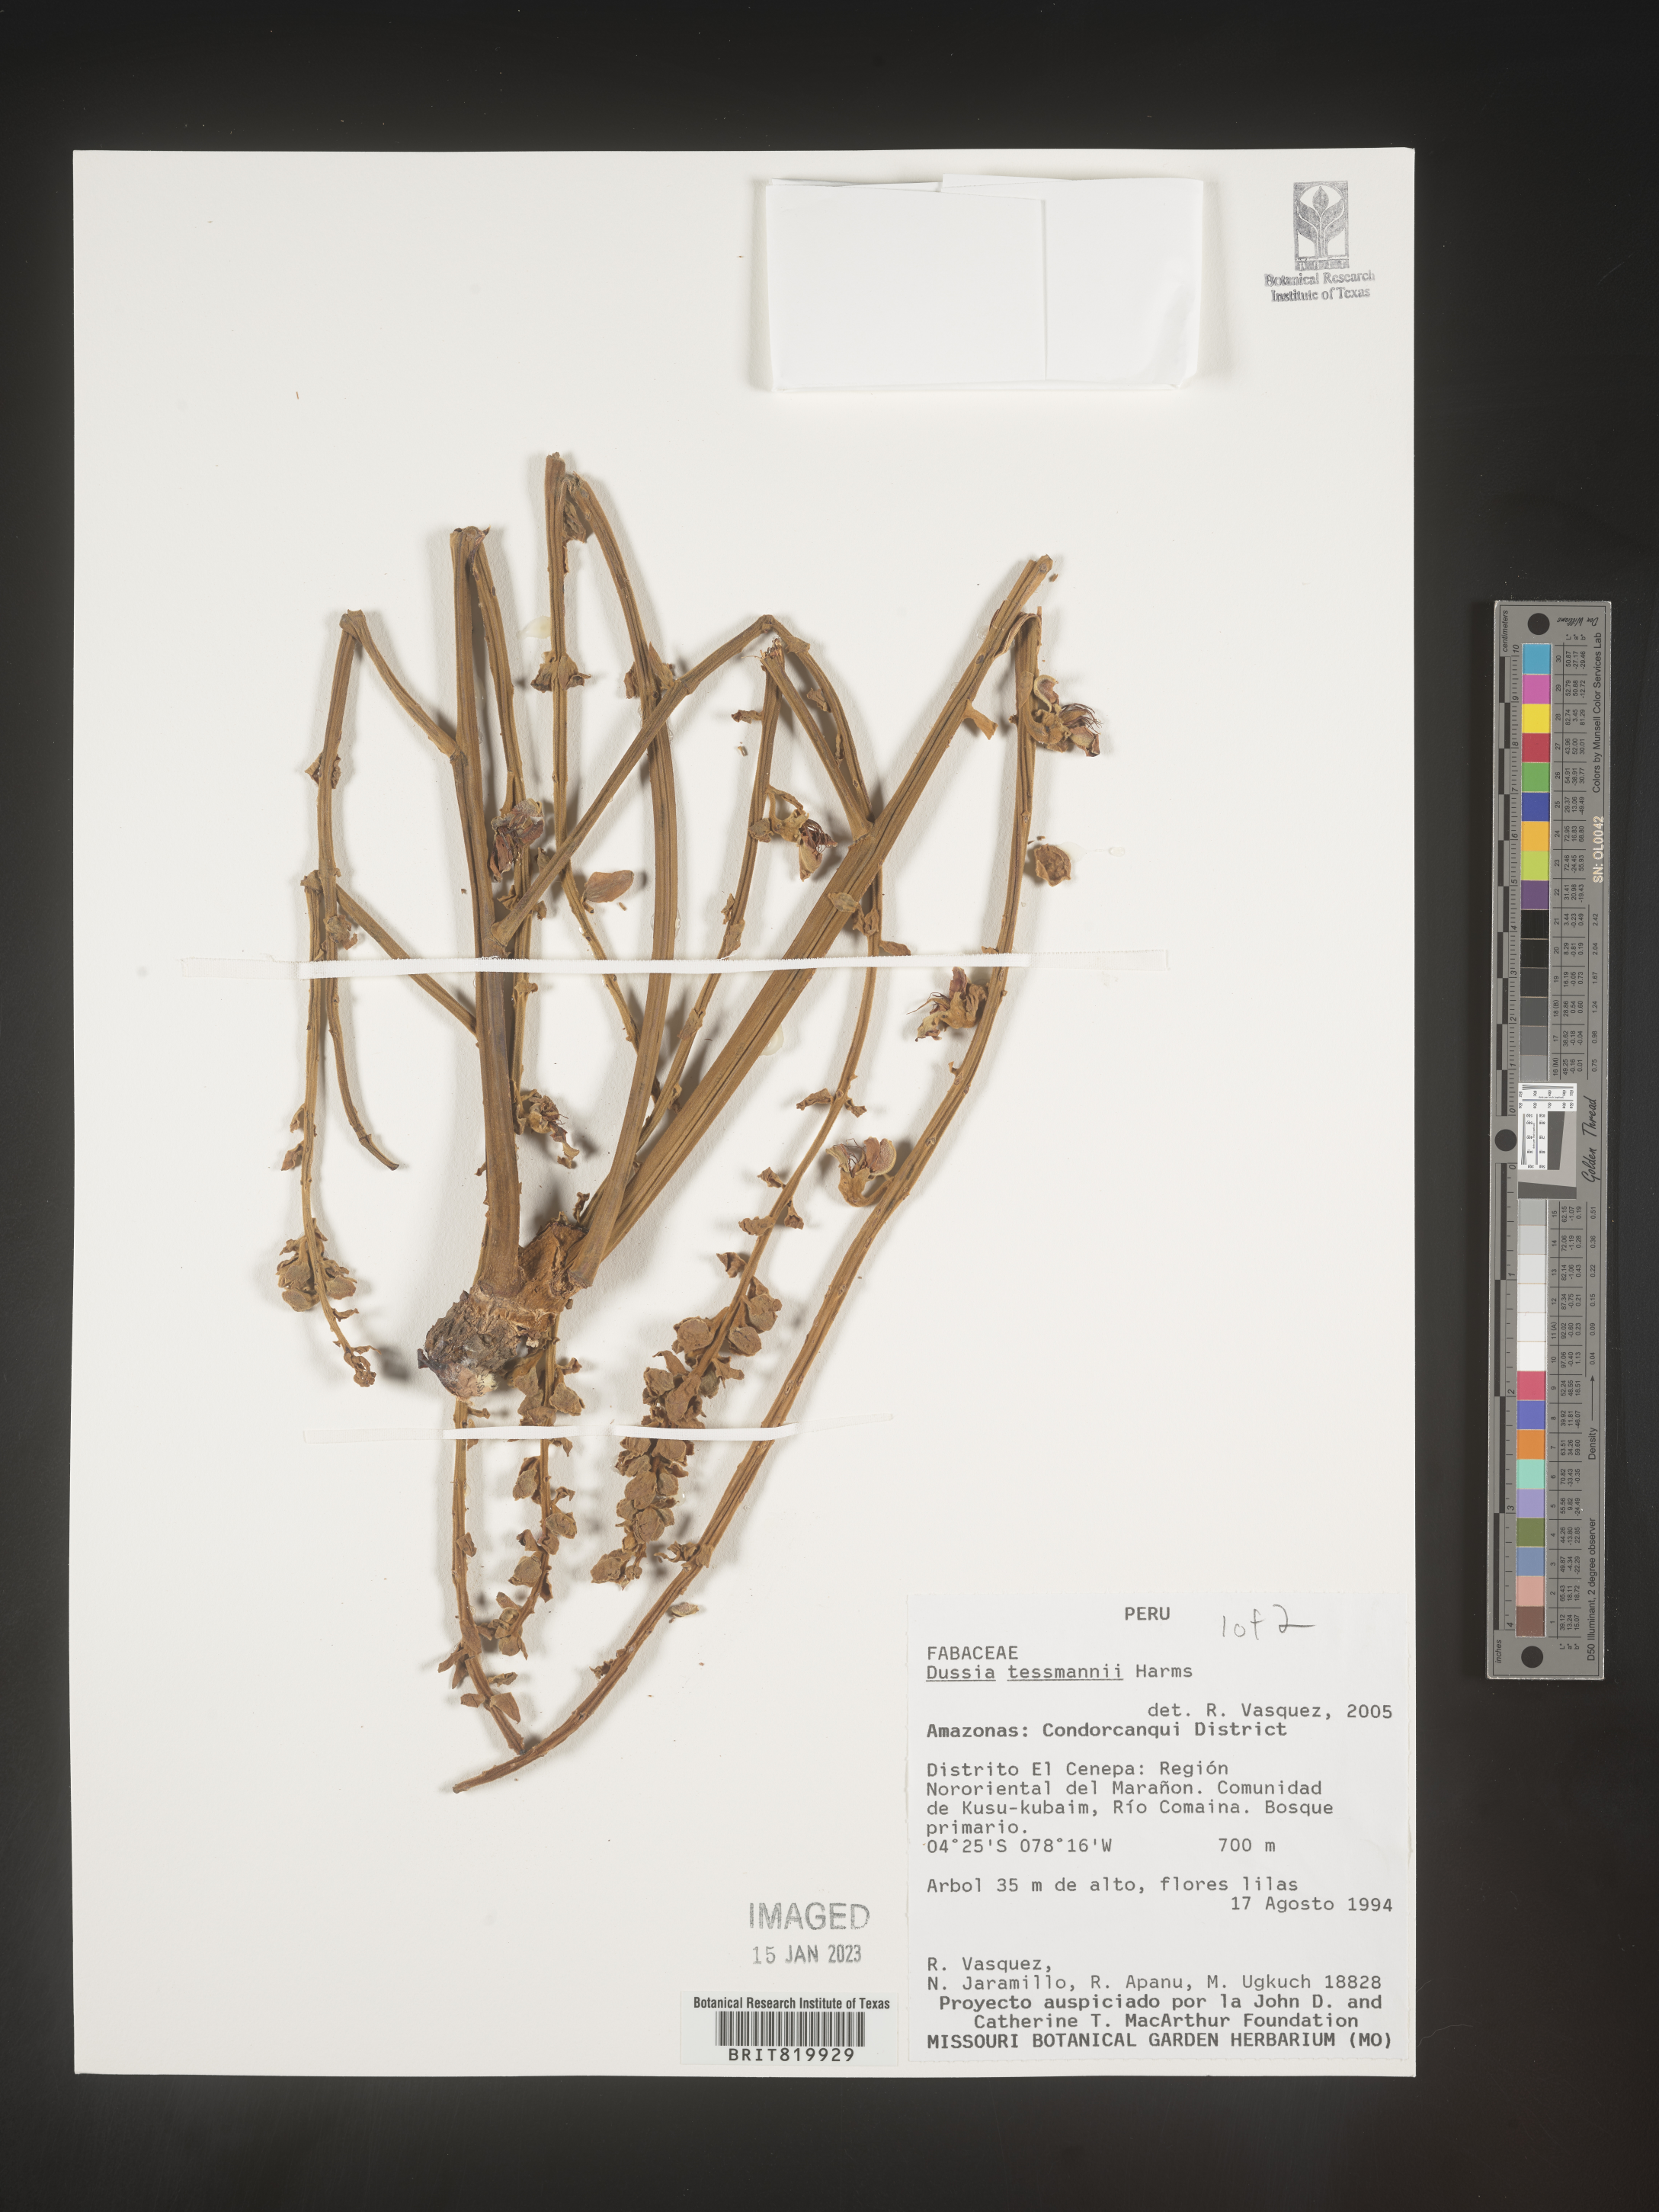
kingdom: Plantae
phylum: Tracheophyta
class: Magnoliopsida
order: Fabales
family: Fabaceae
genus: Dussia
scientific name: Dussia
